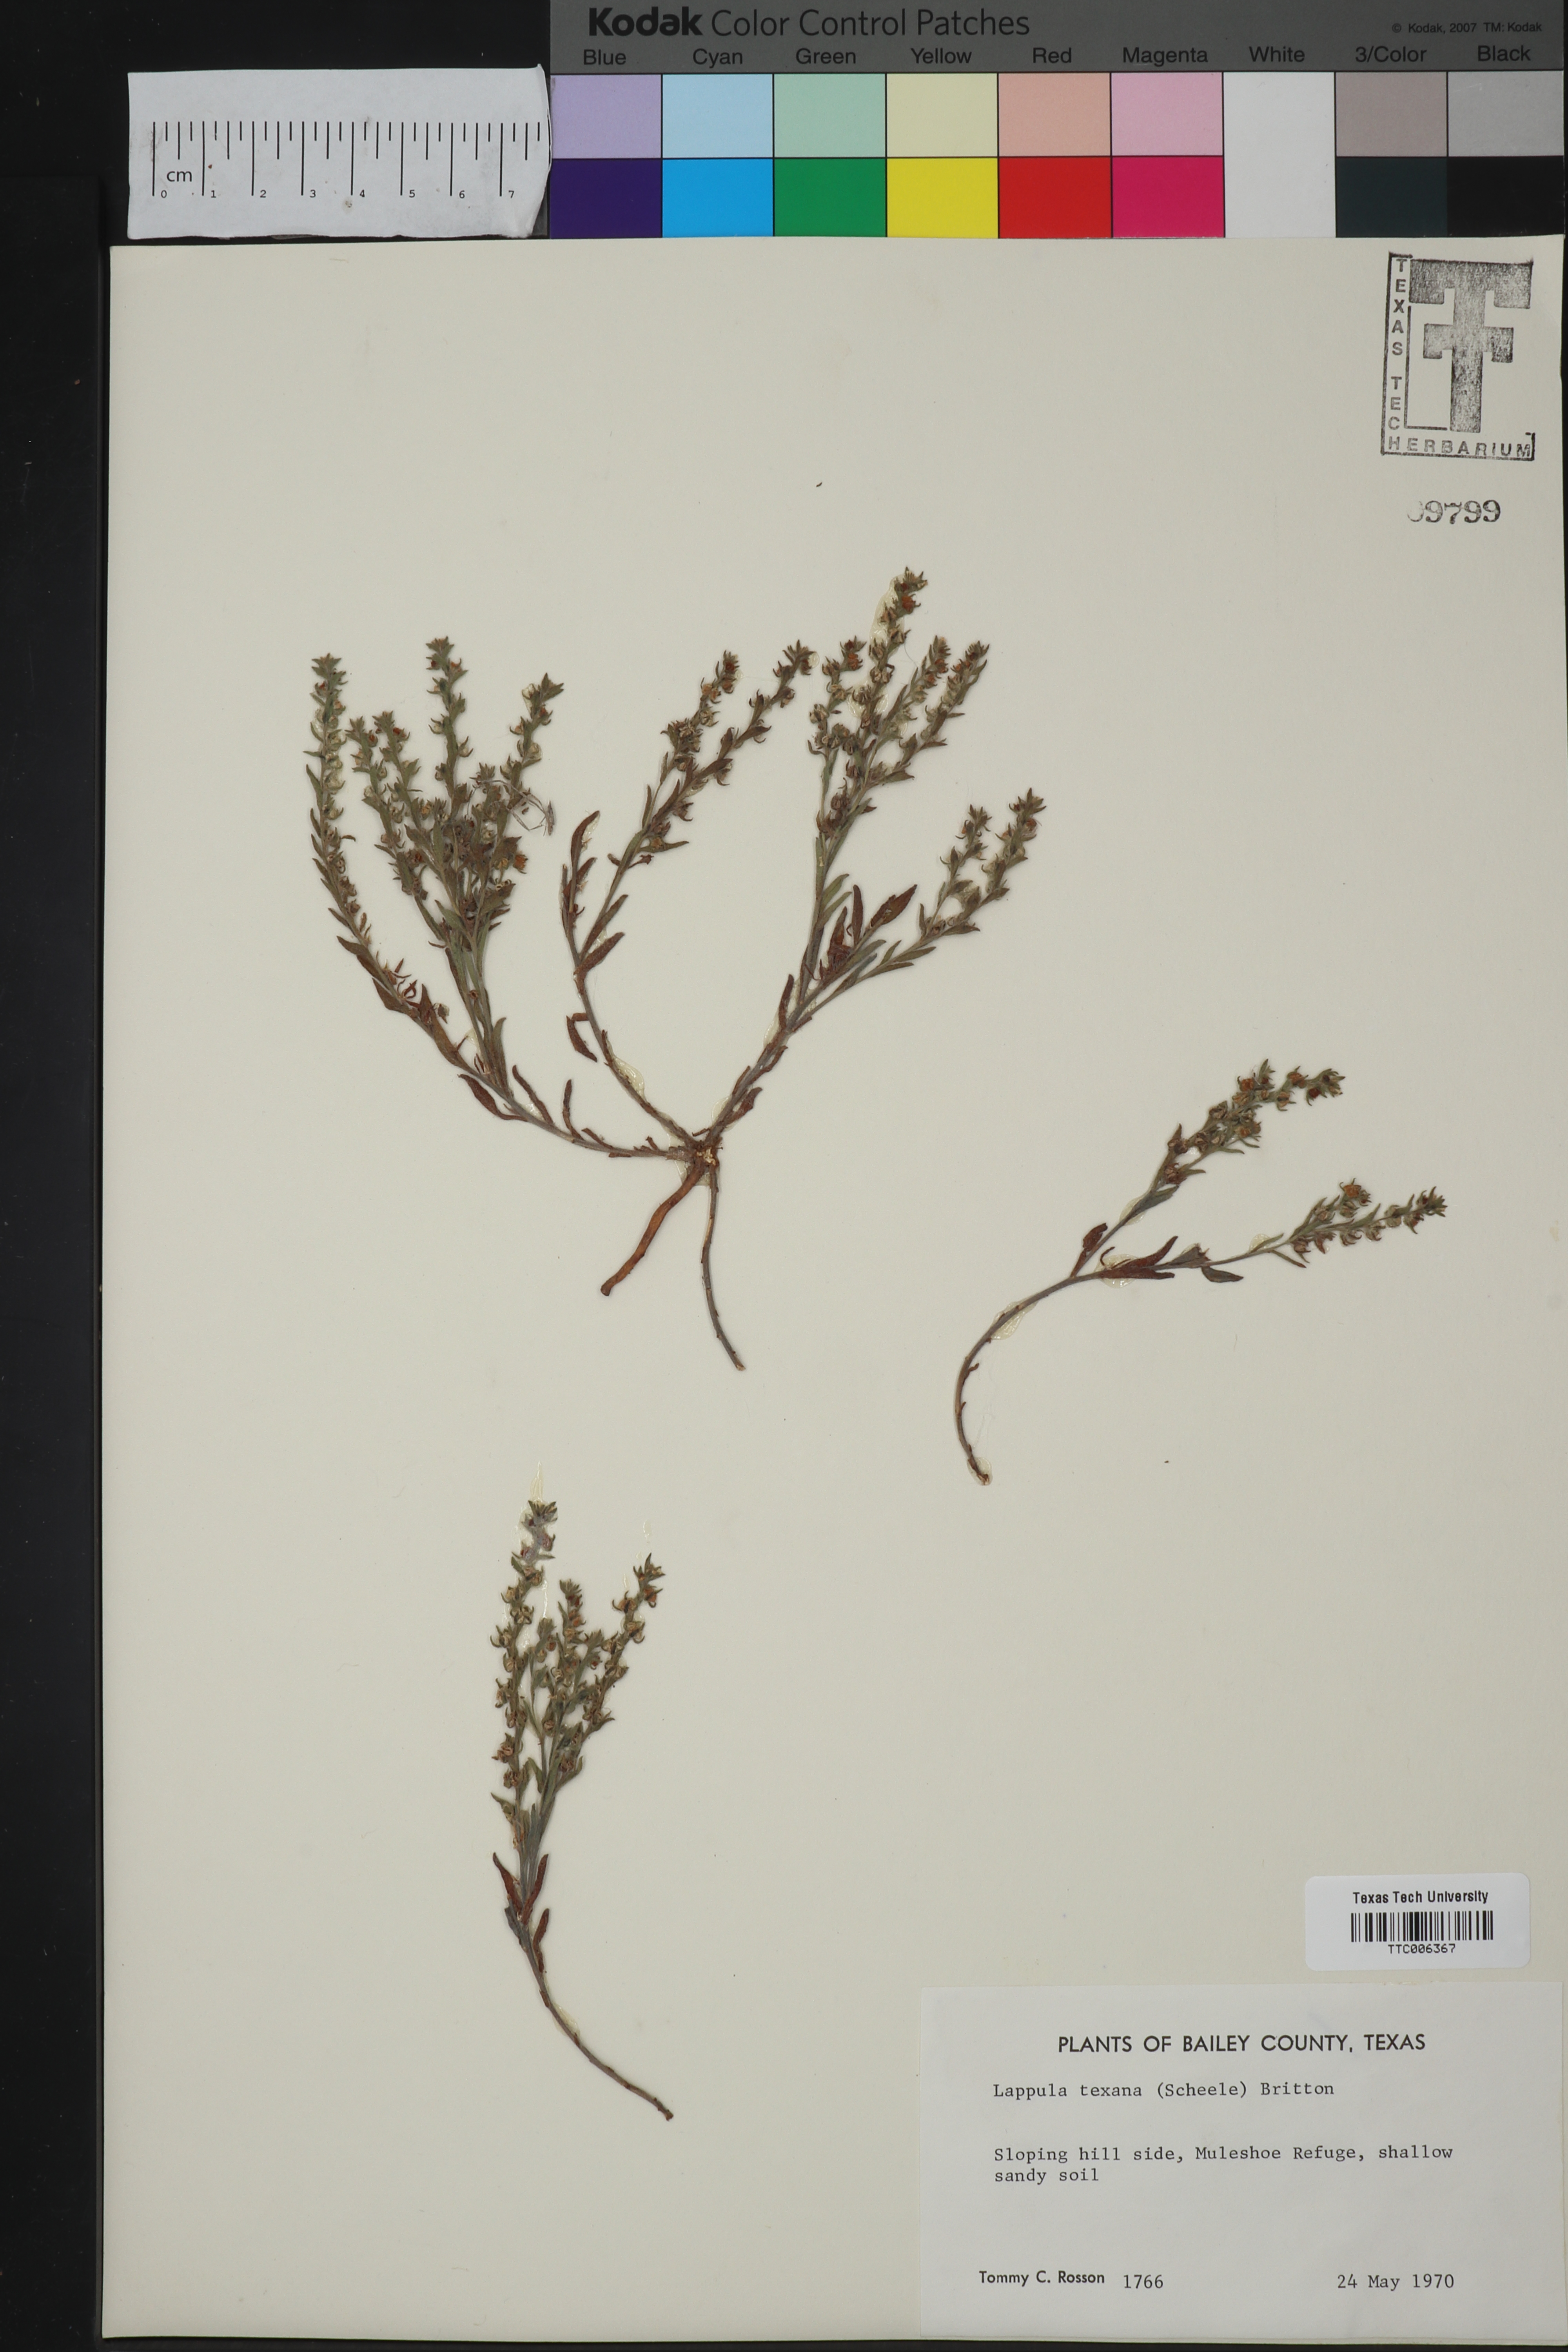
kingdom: Plantae
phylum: Tracheophyta
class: Magnoliopsida
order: Boraginales
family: Boraginaceae
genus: Lappula
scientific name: Lappula occidentalis
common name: Western stickseed
